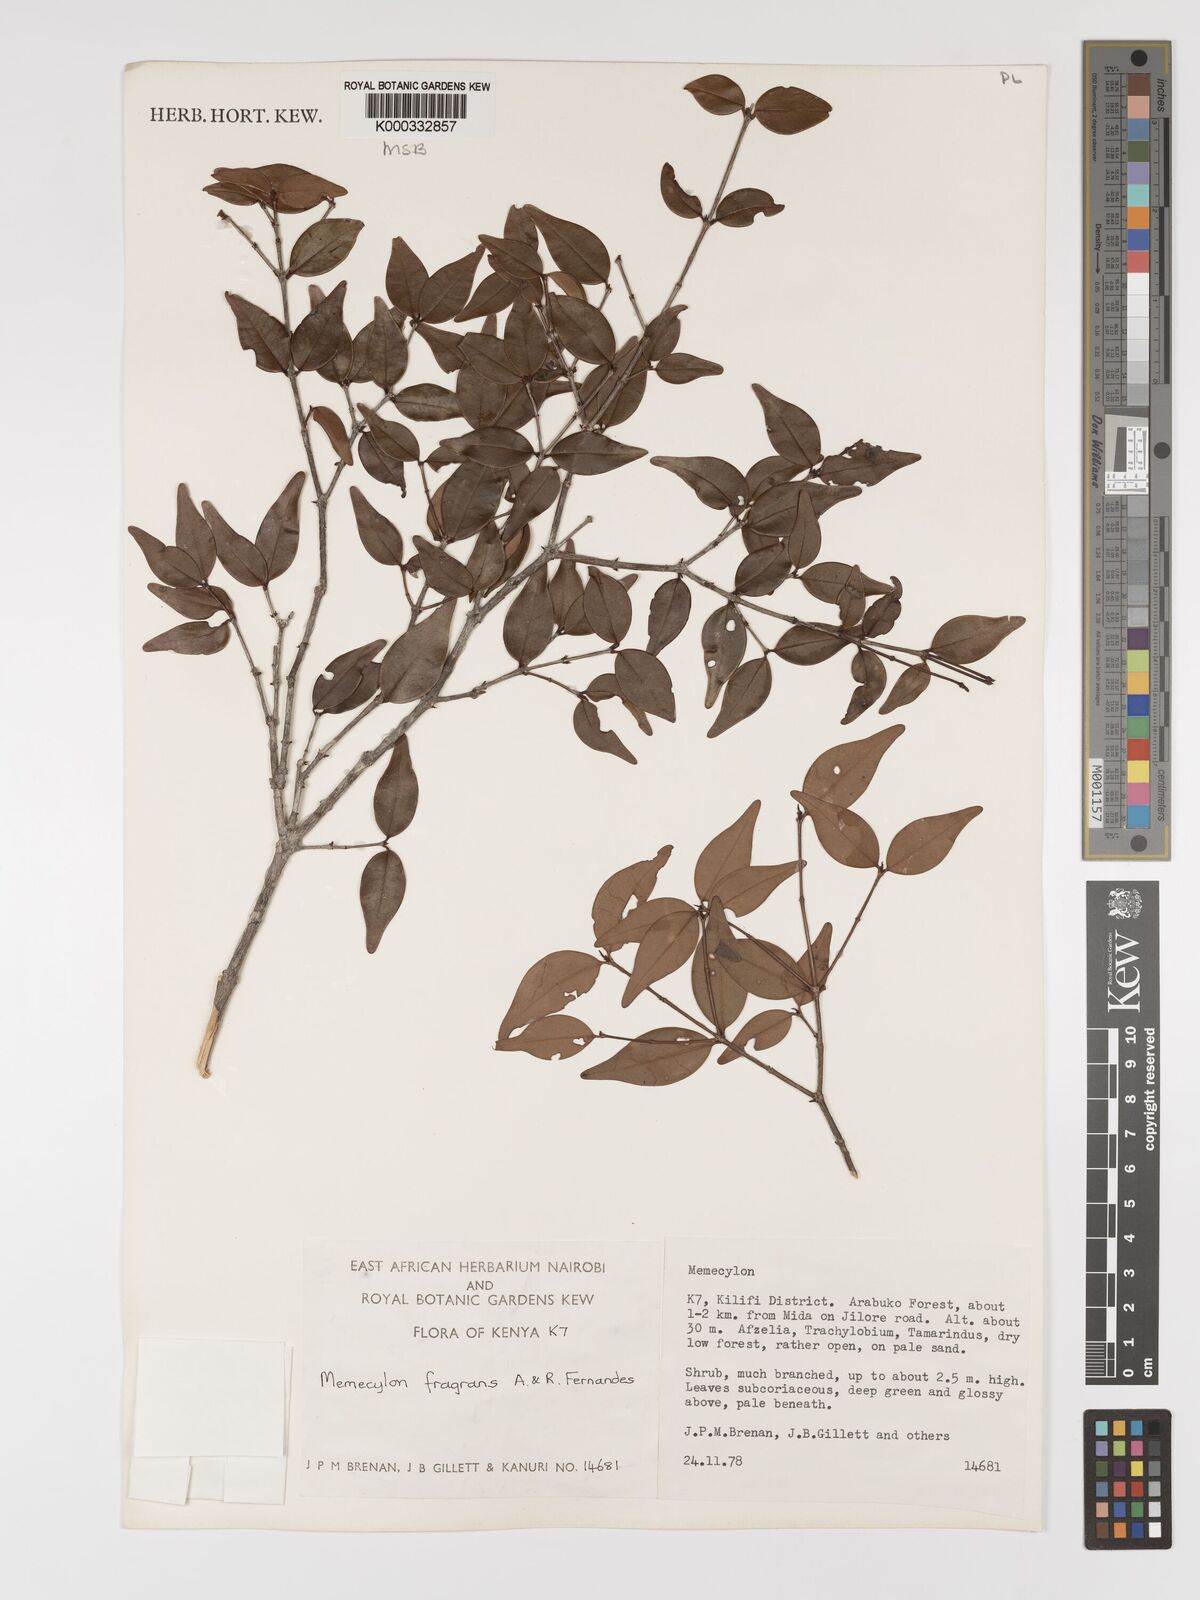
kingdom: Plantae
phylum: Tracheophyta
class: Magnoliopsida
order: Myrtales
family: Melastomataceae
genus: Memecylon
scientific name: Memecylon fragrans
